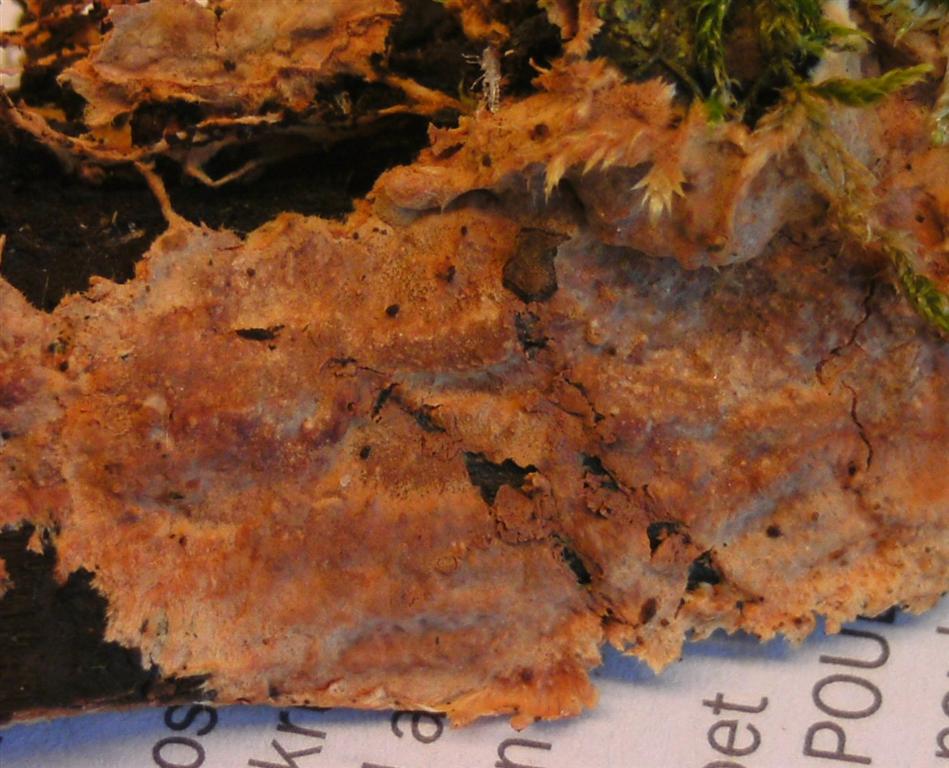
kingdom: Fungi
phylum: Basidiomycota
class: Agaricomycetes
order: Polyporales
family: Phanerochaetaceae
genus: Rhizochaete
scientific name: Rhizochaete radicata
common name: orangebrun randtråd
